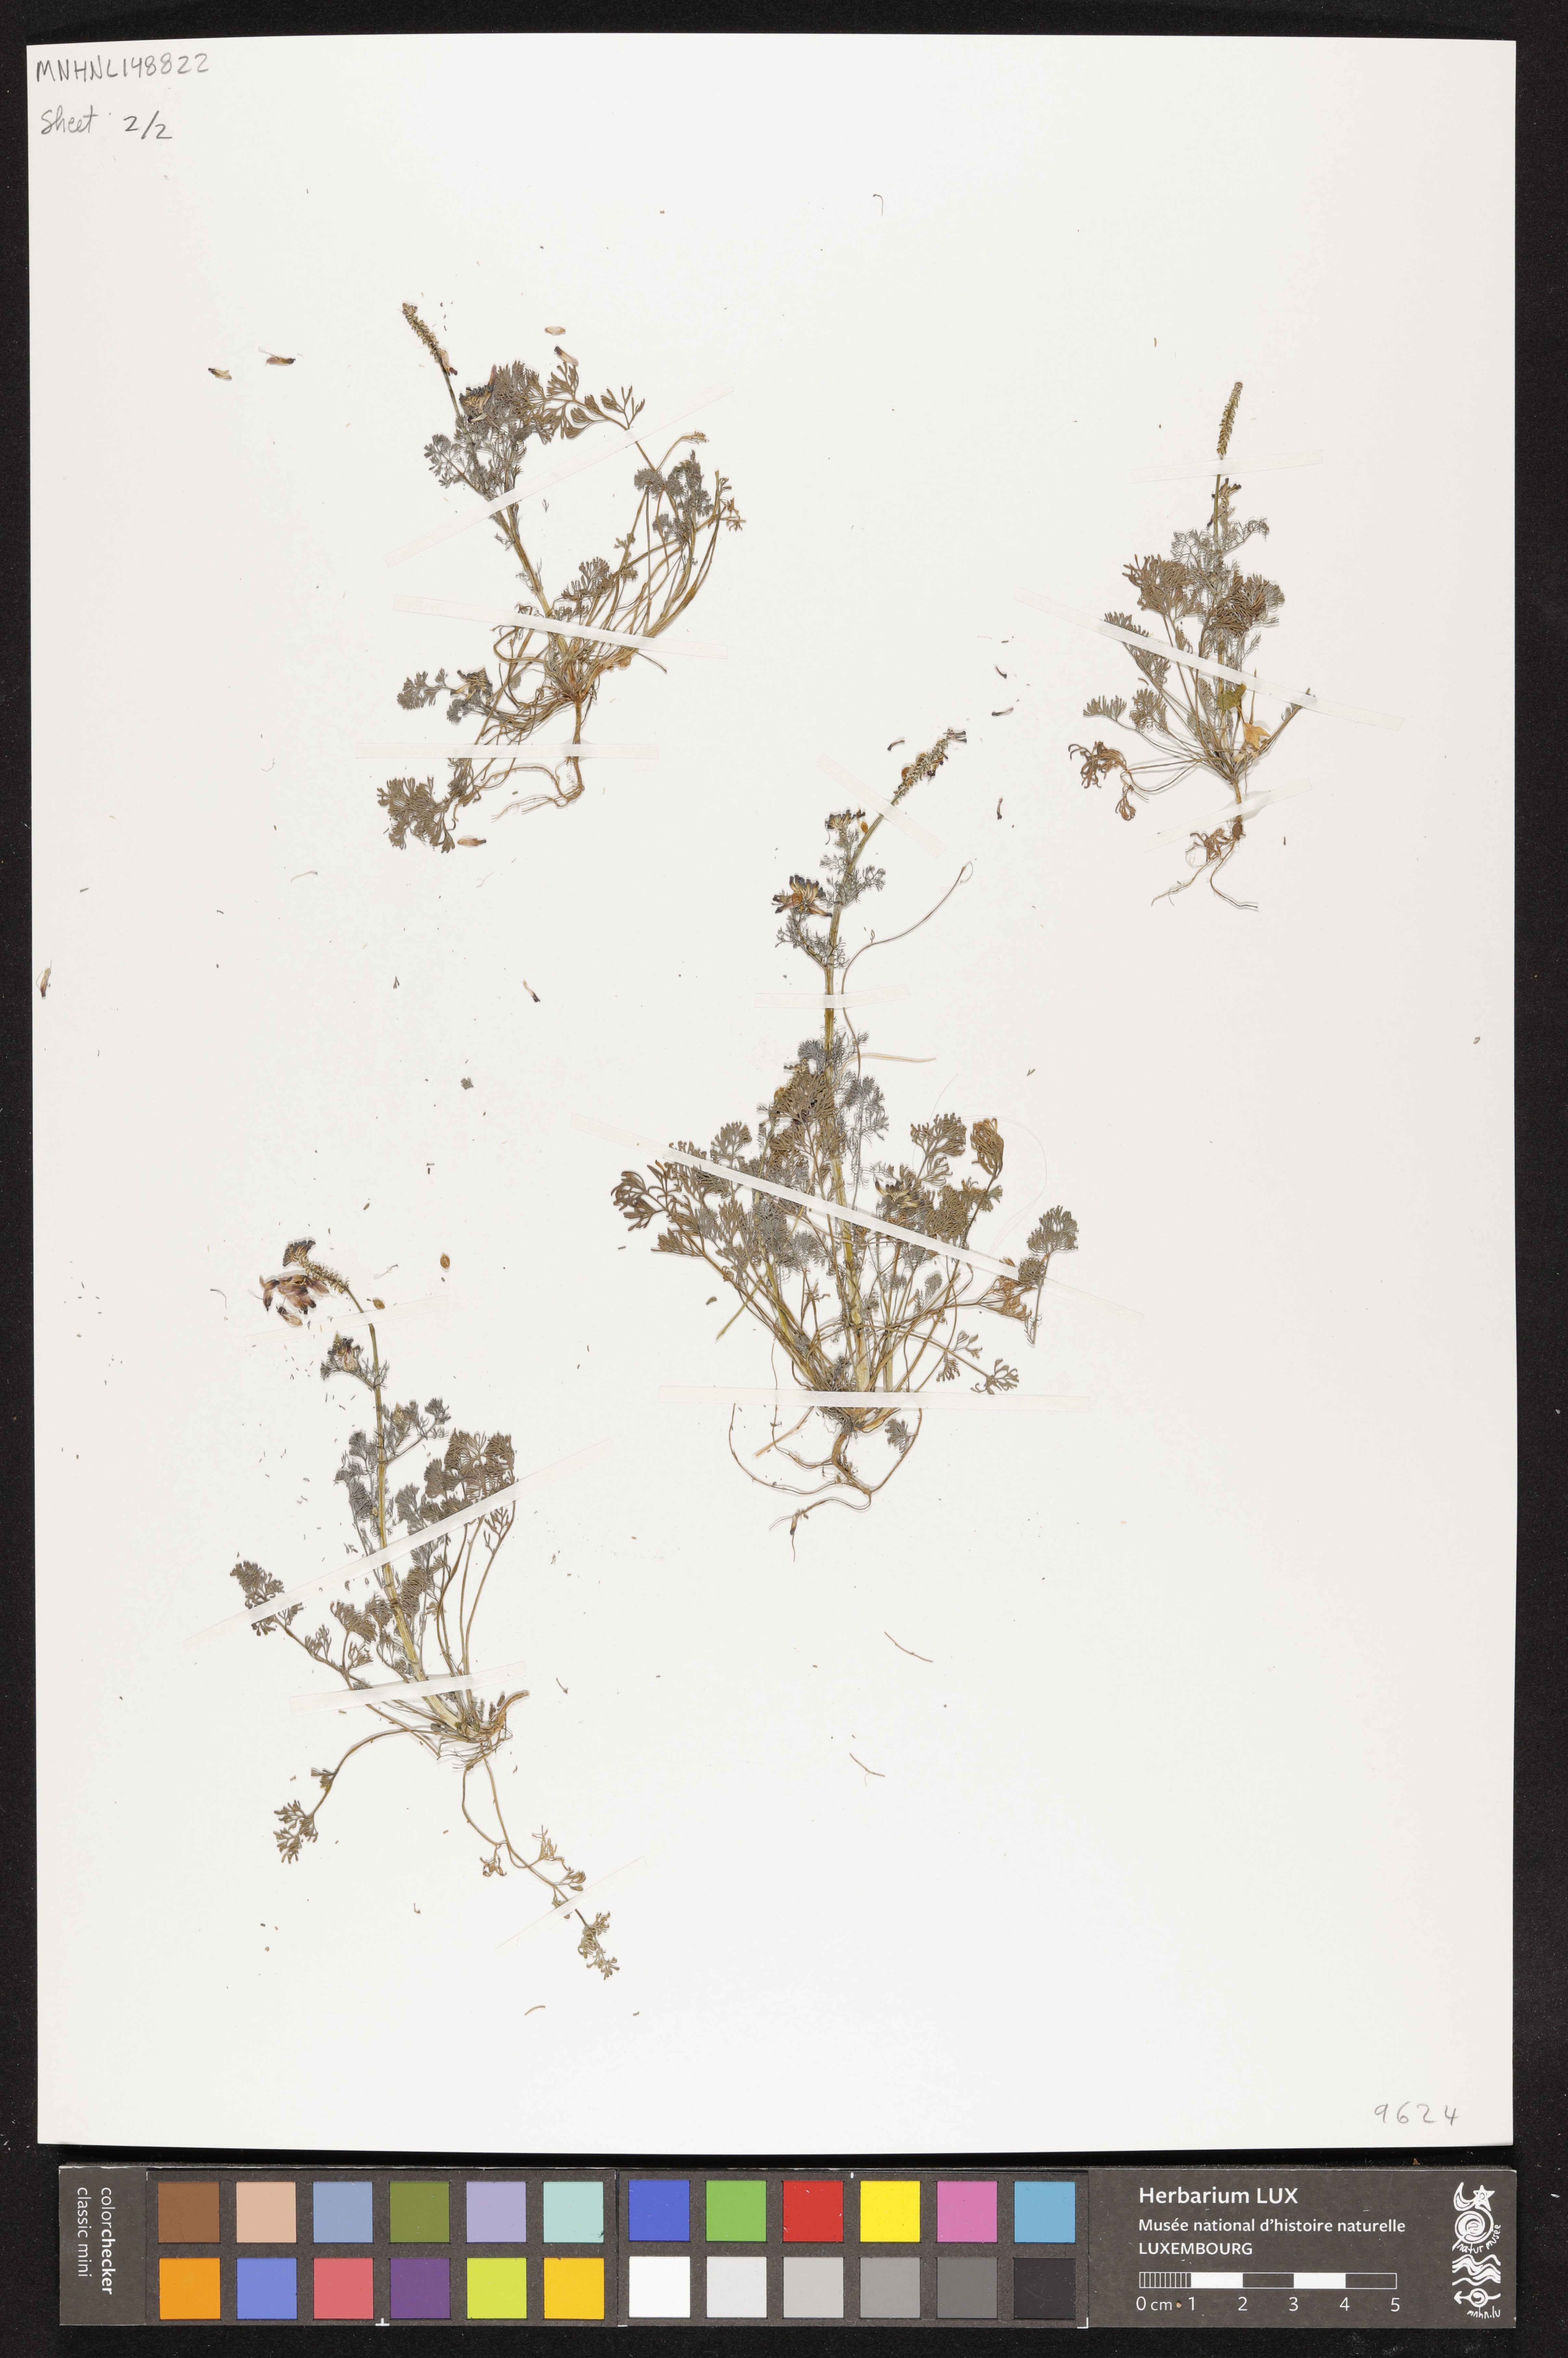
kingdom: Plantae
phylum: Tracheophyta
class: Magnoliopsida
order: Ranunculales
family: Papaveraceae
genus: Fumaria
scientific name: Fumaria
